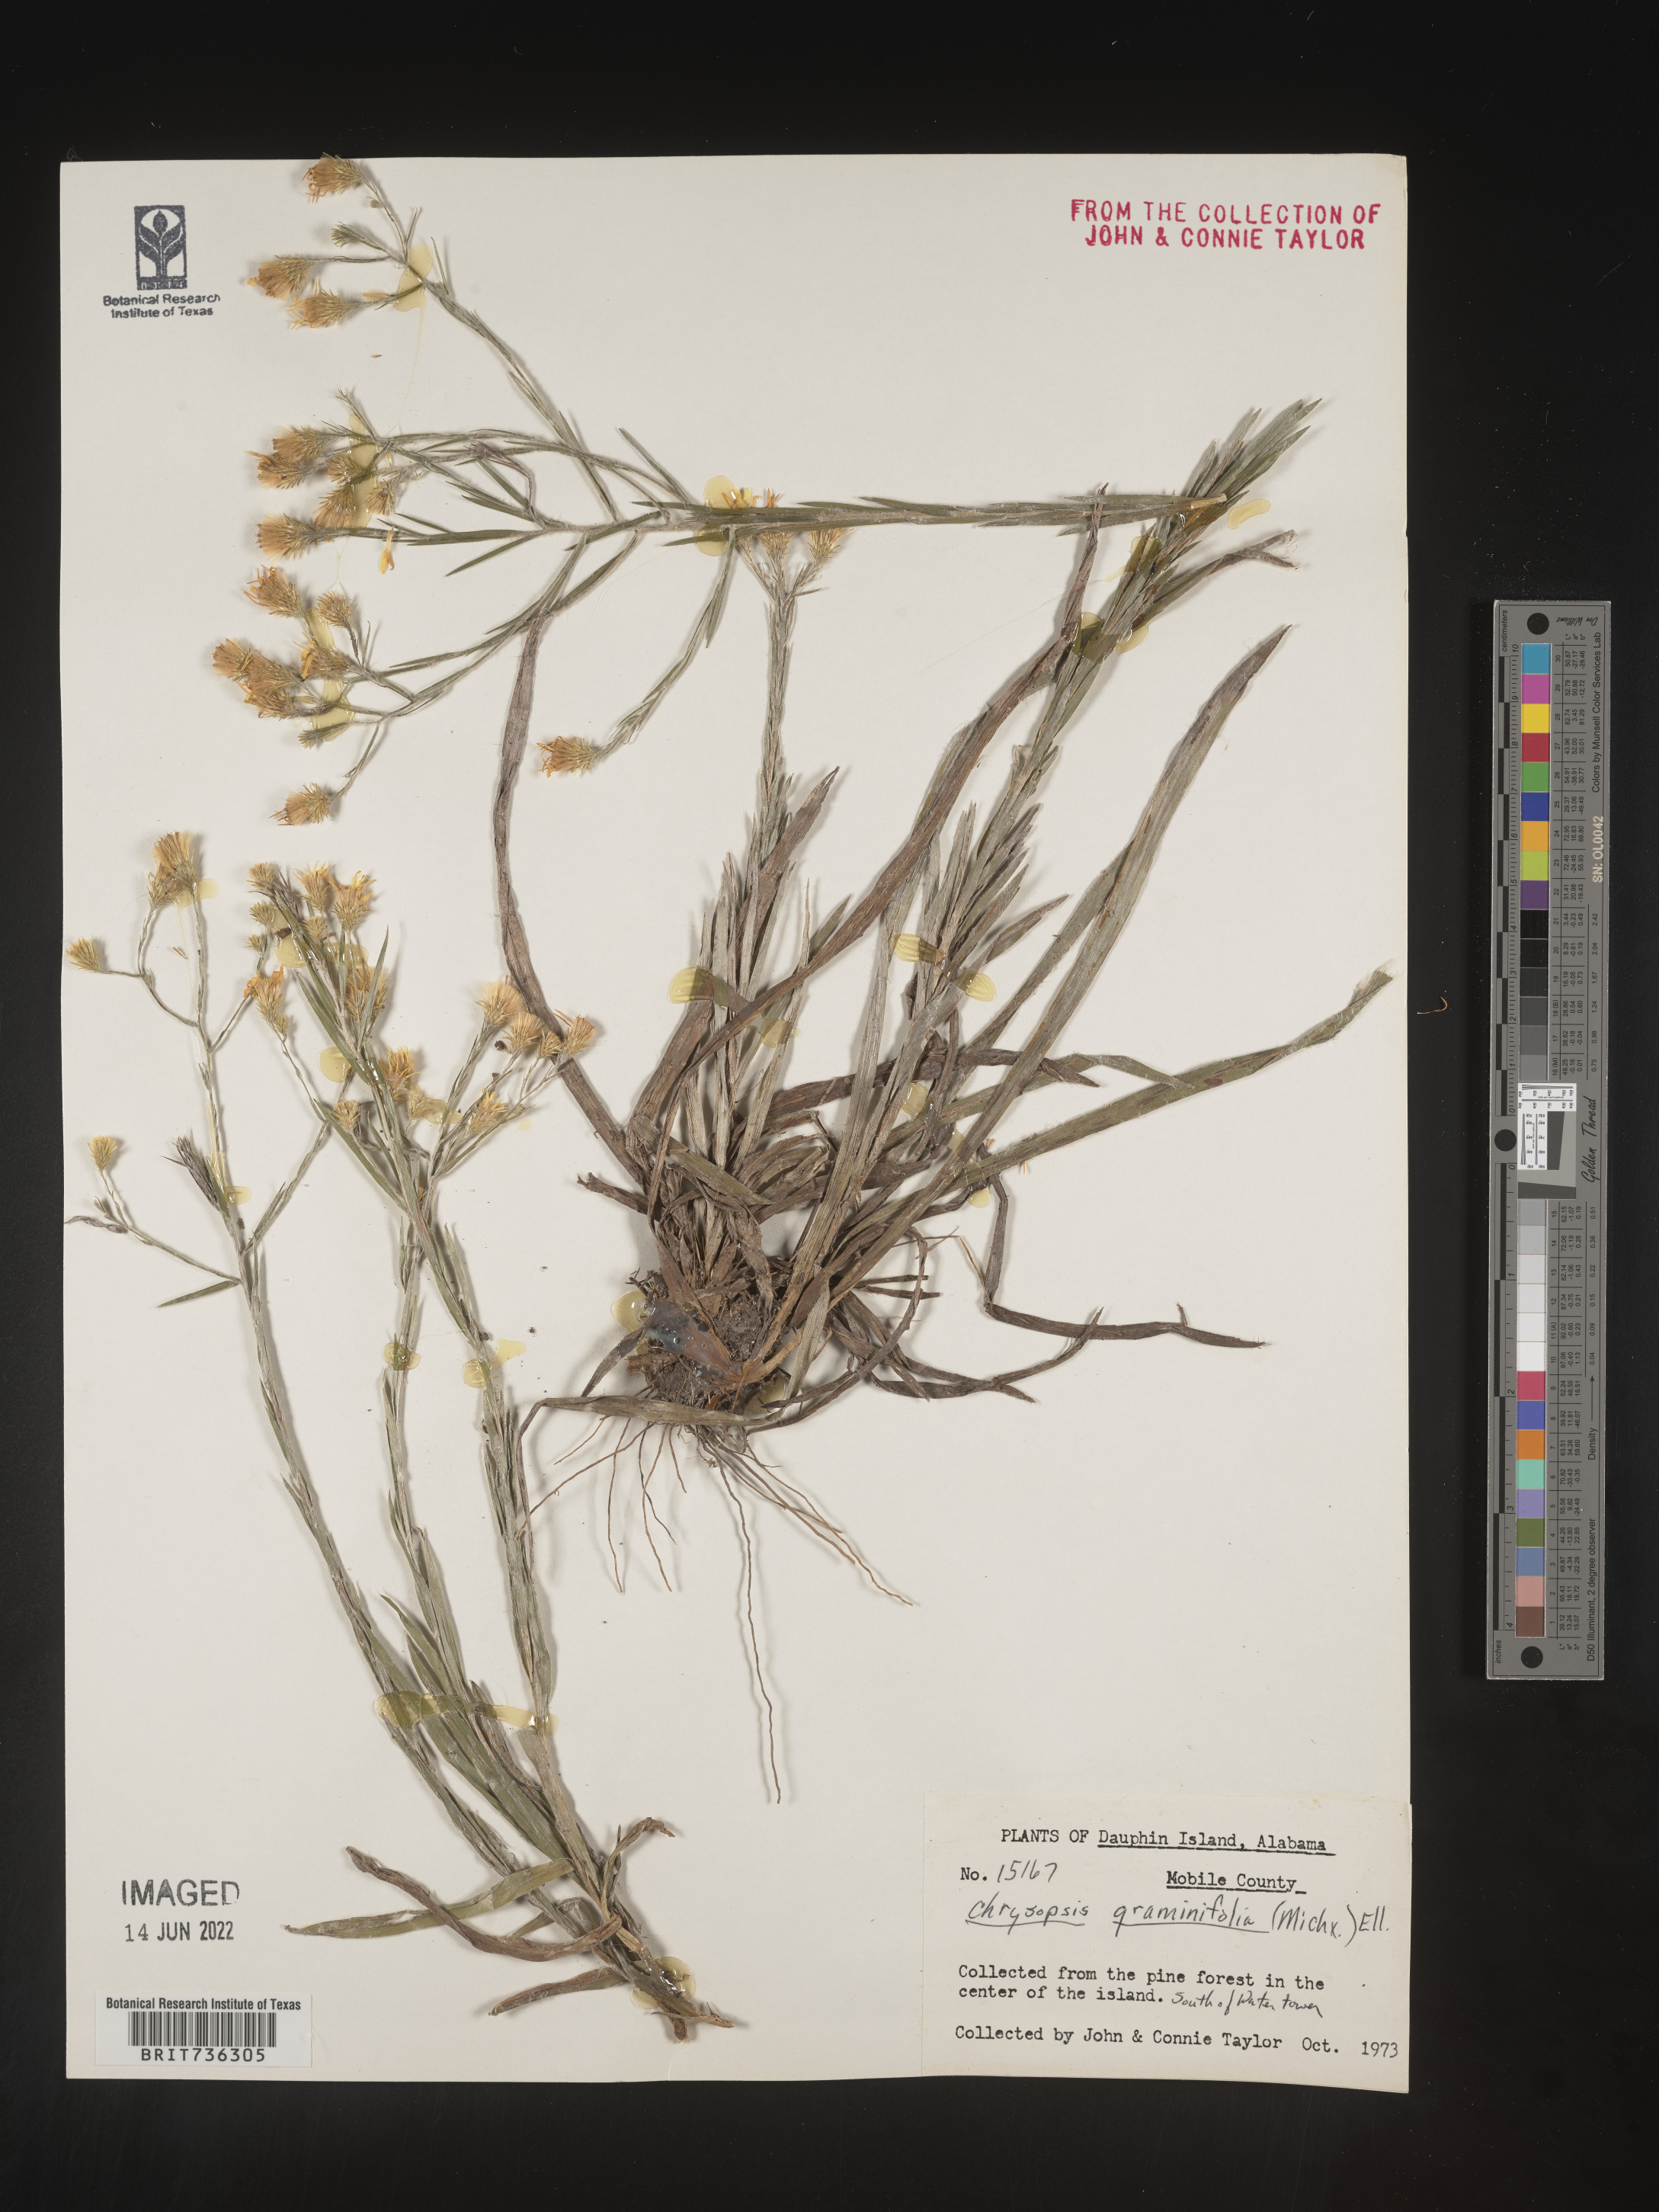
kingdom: Plantae
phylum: Tracheophyta
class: Magnoliopsida
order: Asterales
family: Asteraceae
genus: Pityopsis
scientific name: Pityopsis microcephala
